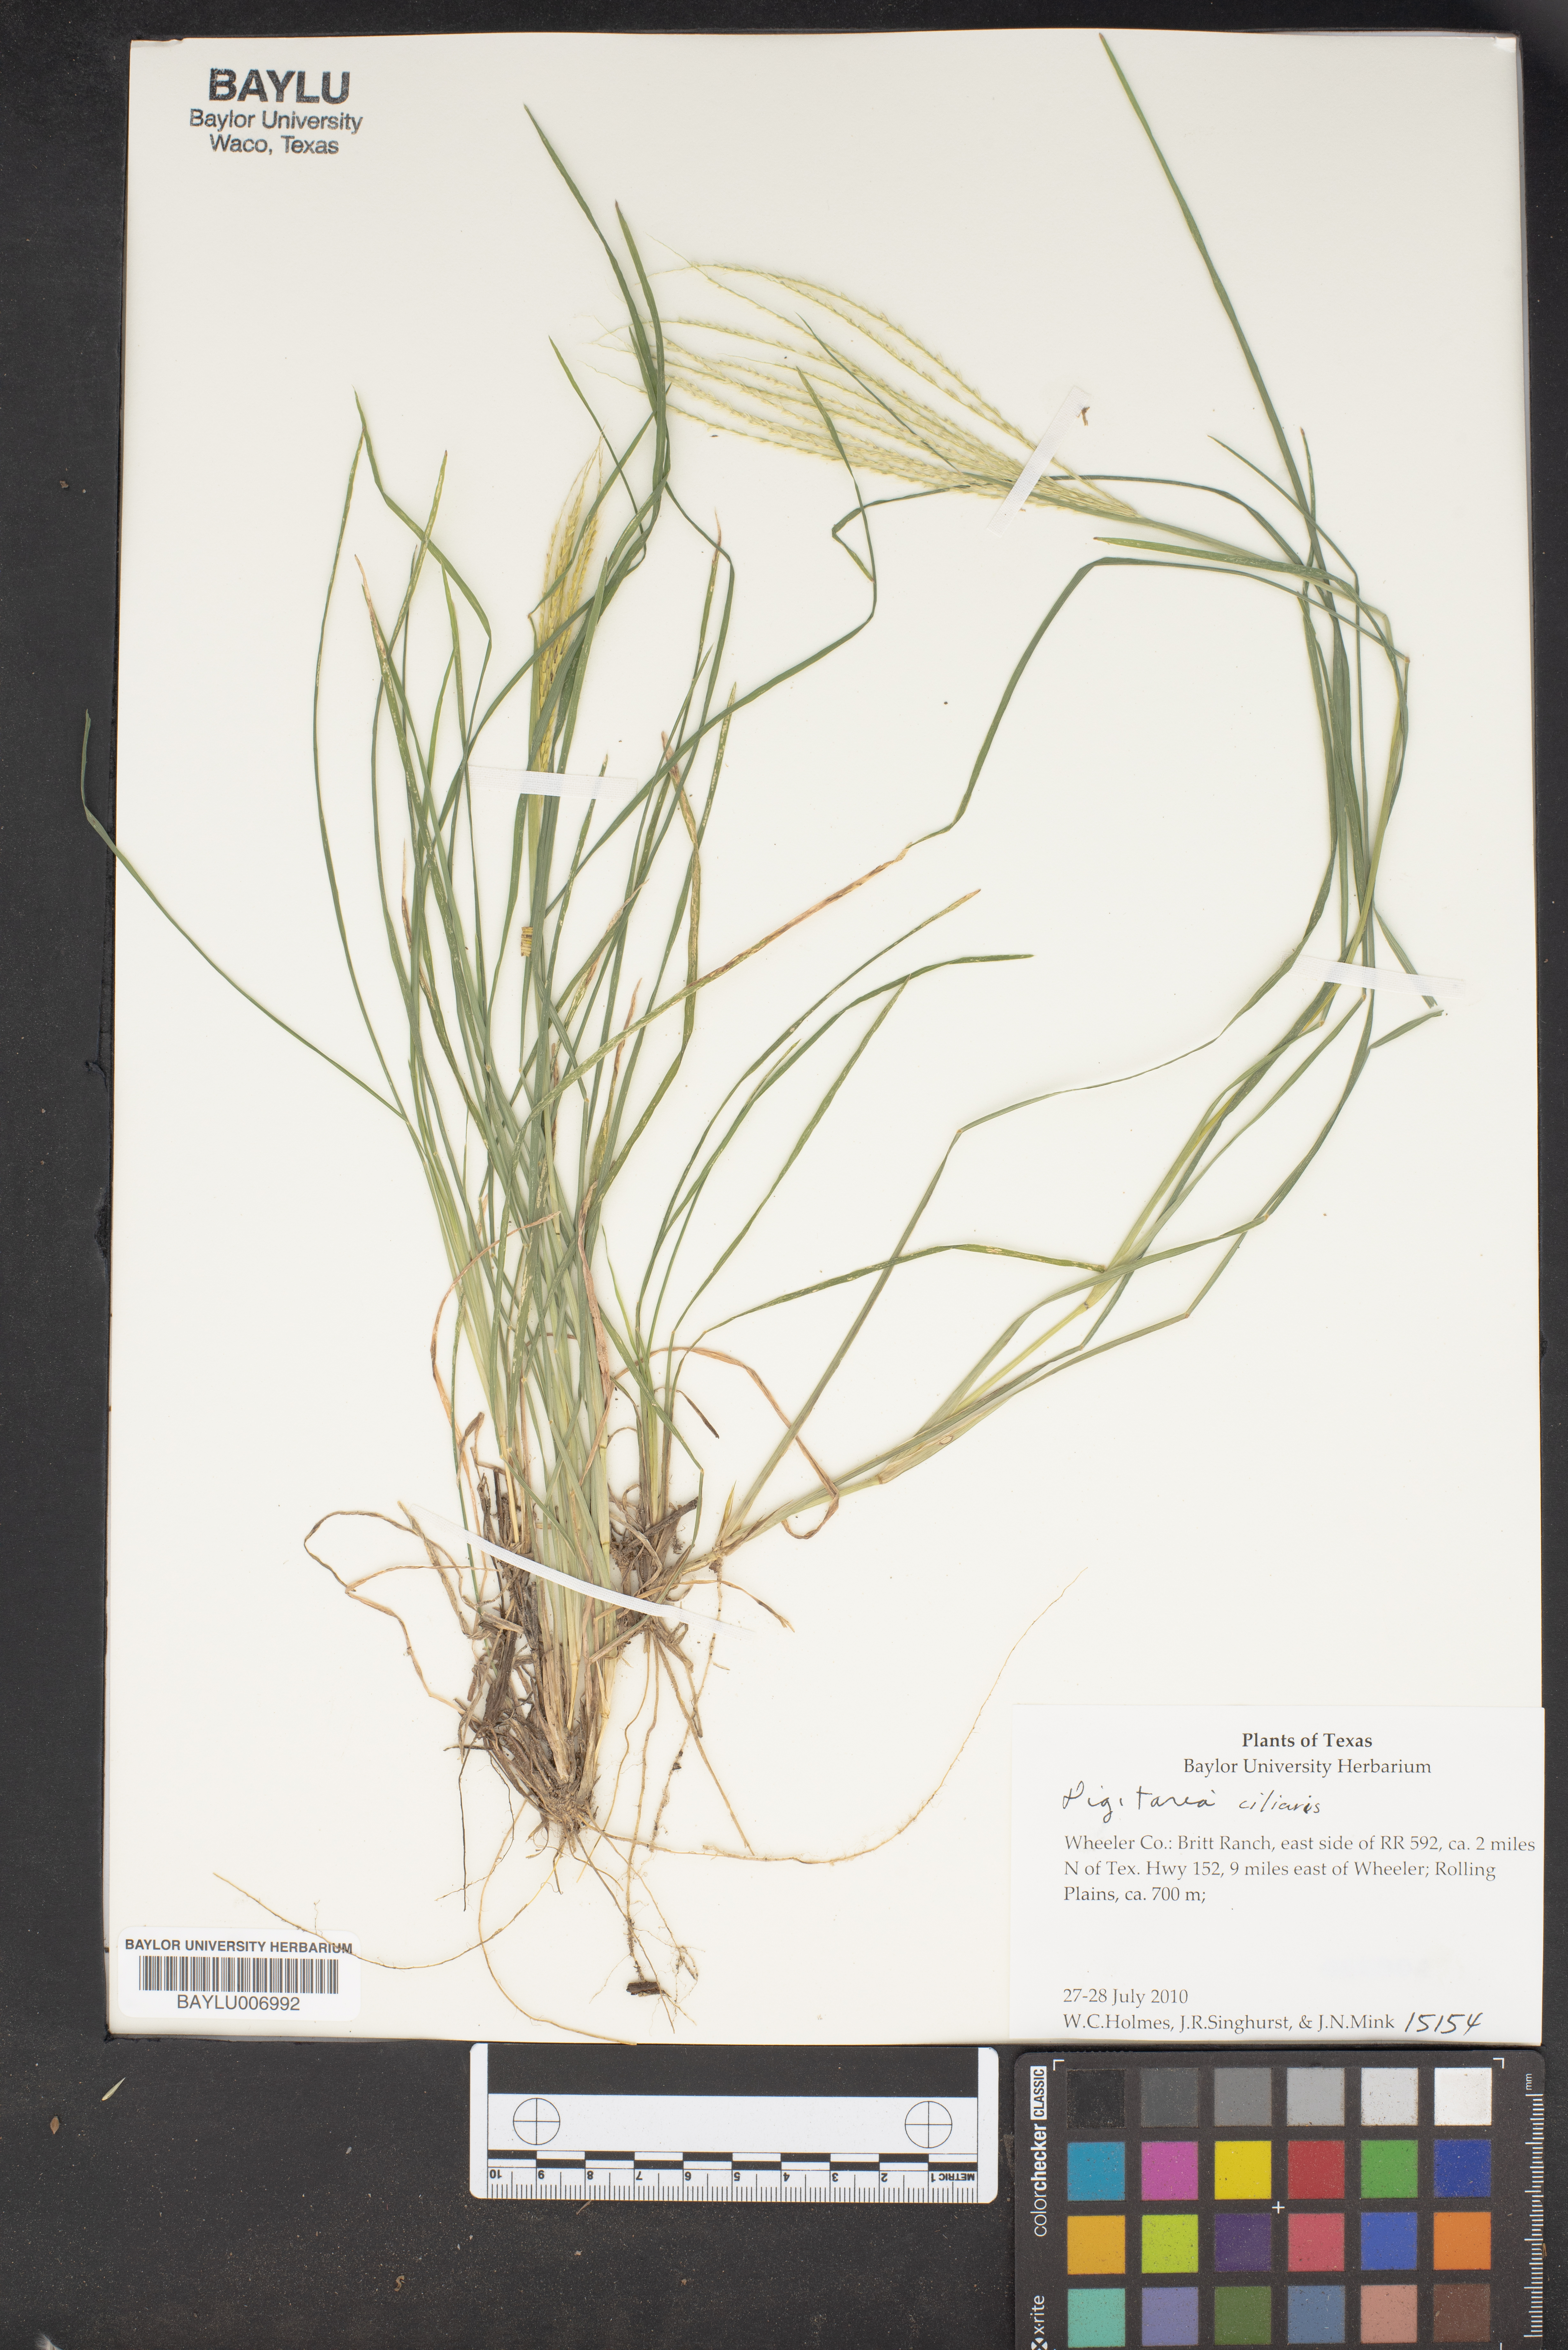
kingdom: Plantae
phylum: Tracheophyta
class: Liliopsida
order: Poales
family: Poaceae
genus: Digitaria
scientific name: Digitaria ciliaris
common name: Tropical finger-grass
